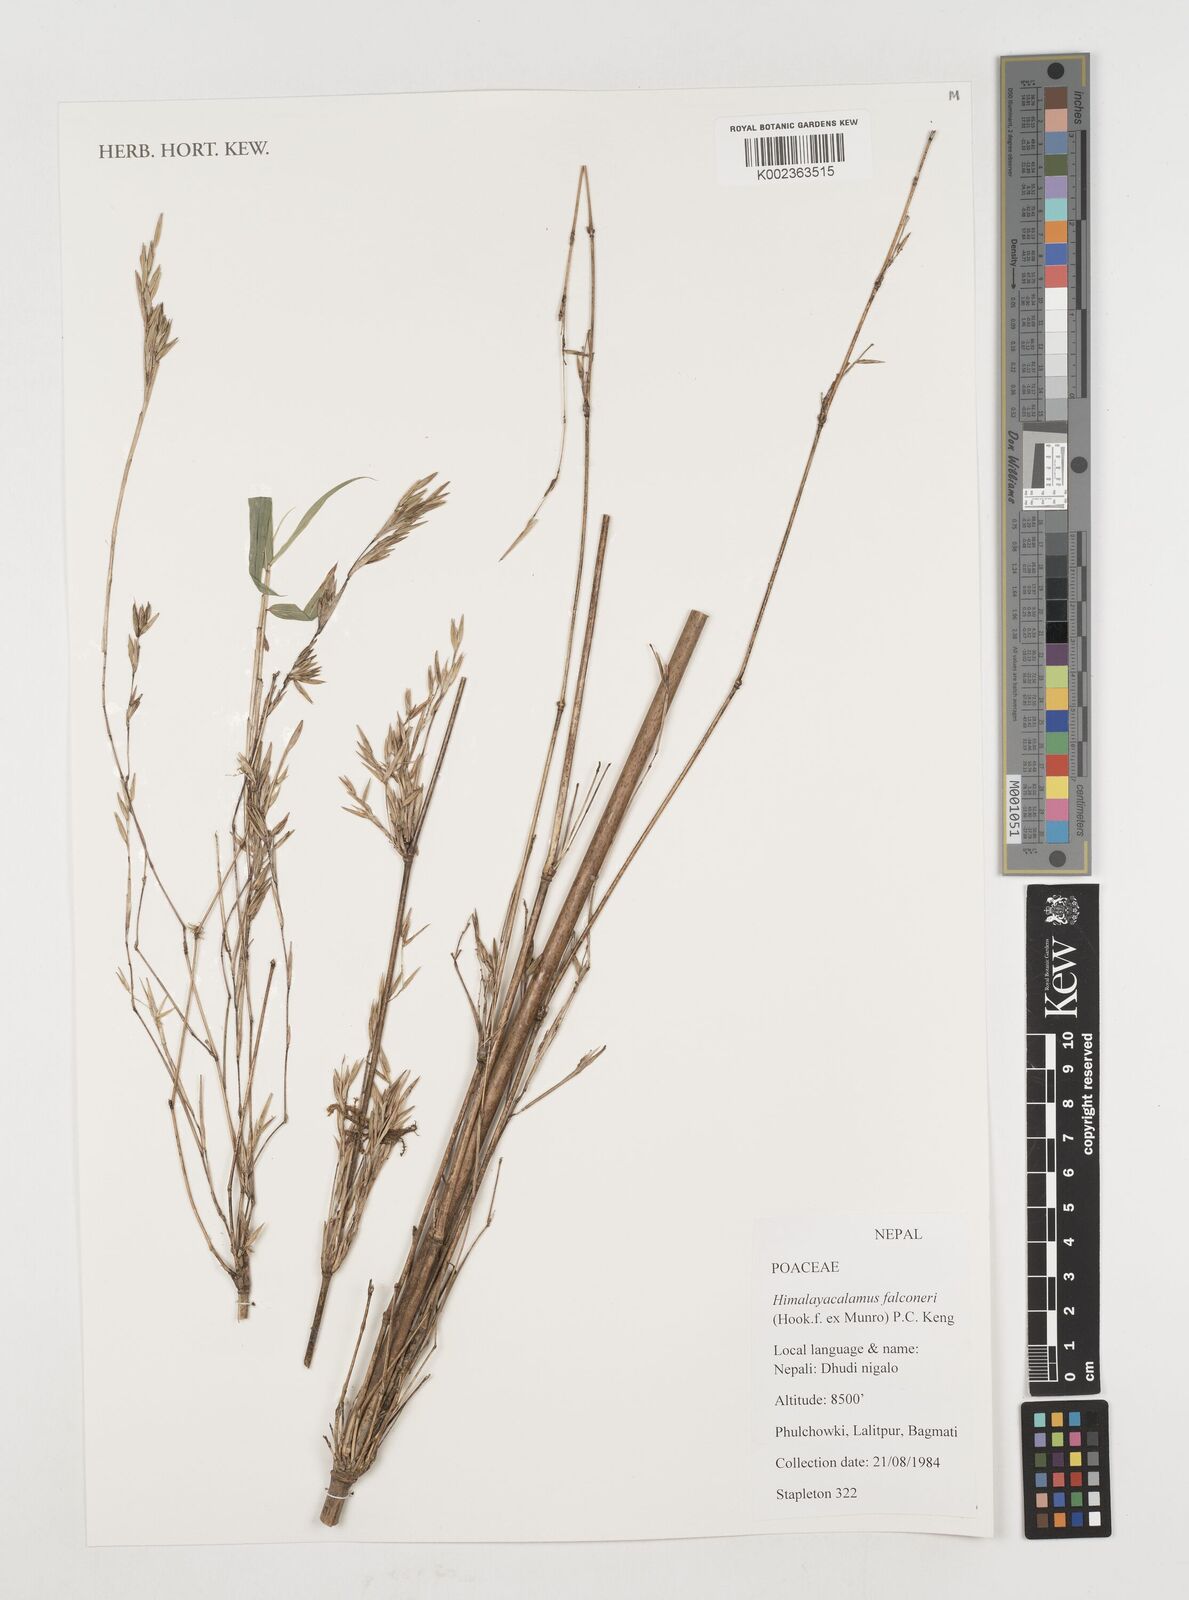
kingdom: Plantae
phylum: Tracheophyta
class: Liliopsida
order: Poales
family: Poaceae
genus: Himalayacalamus
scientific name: Himalayacalamus falconeri
